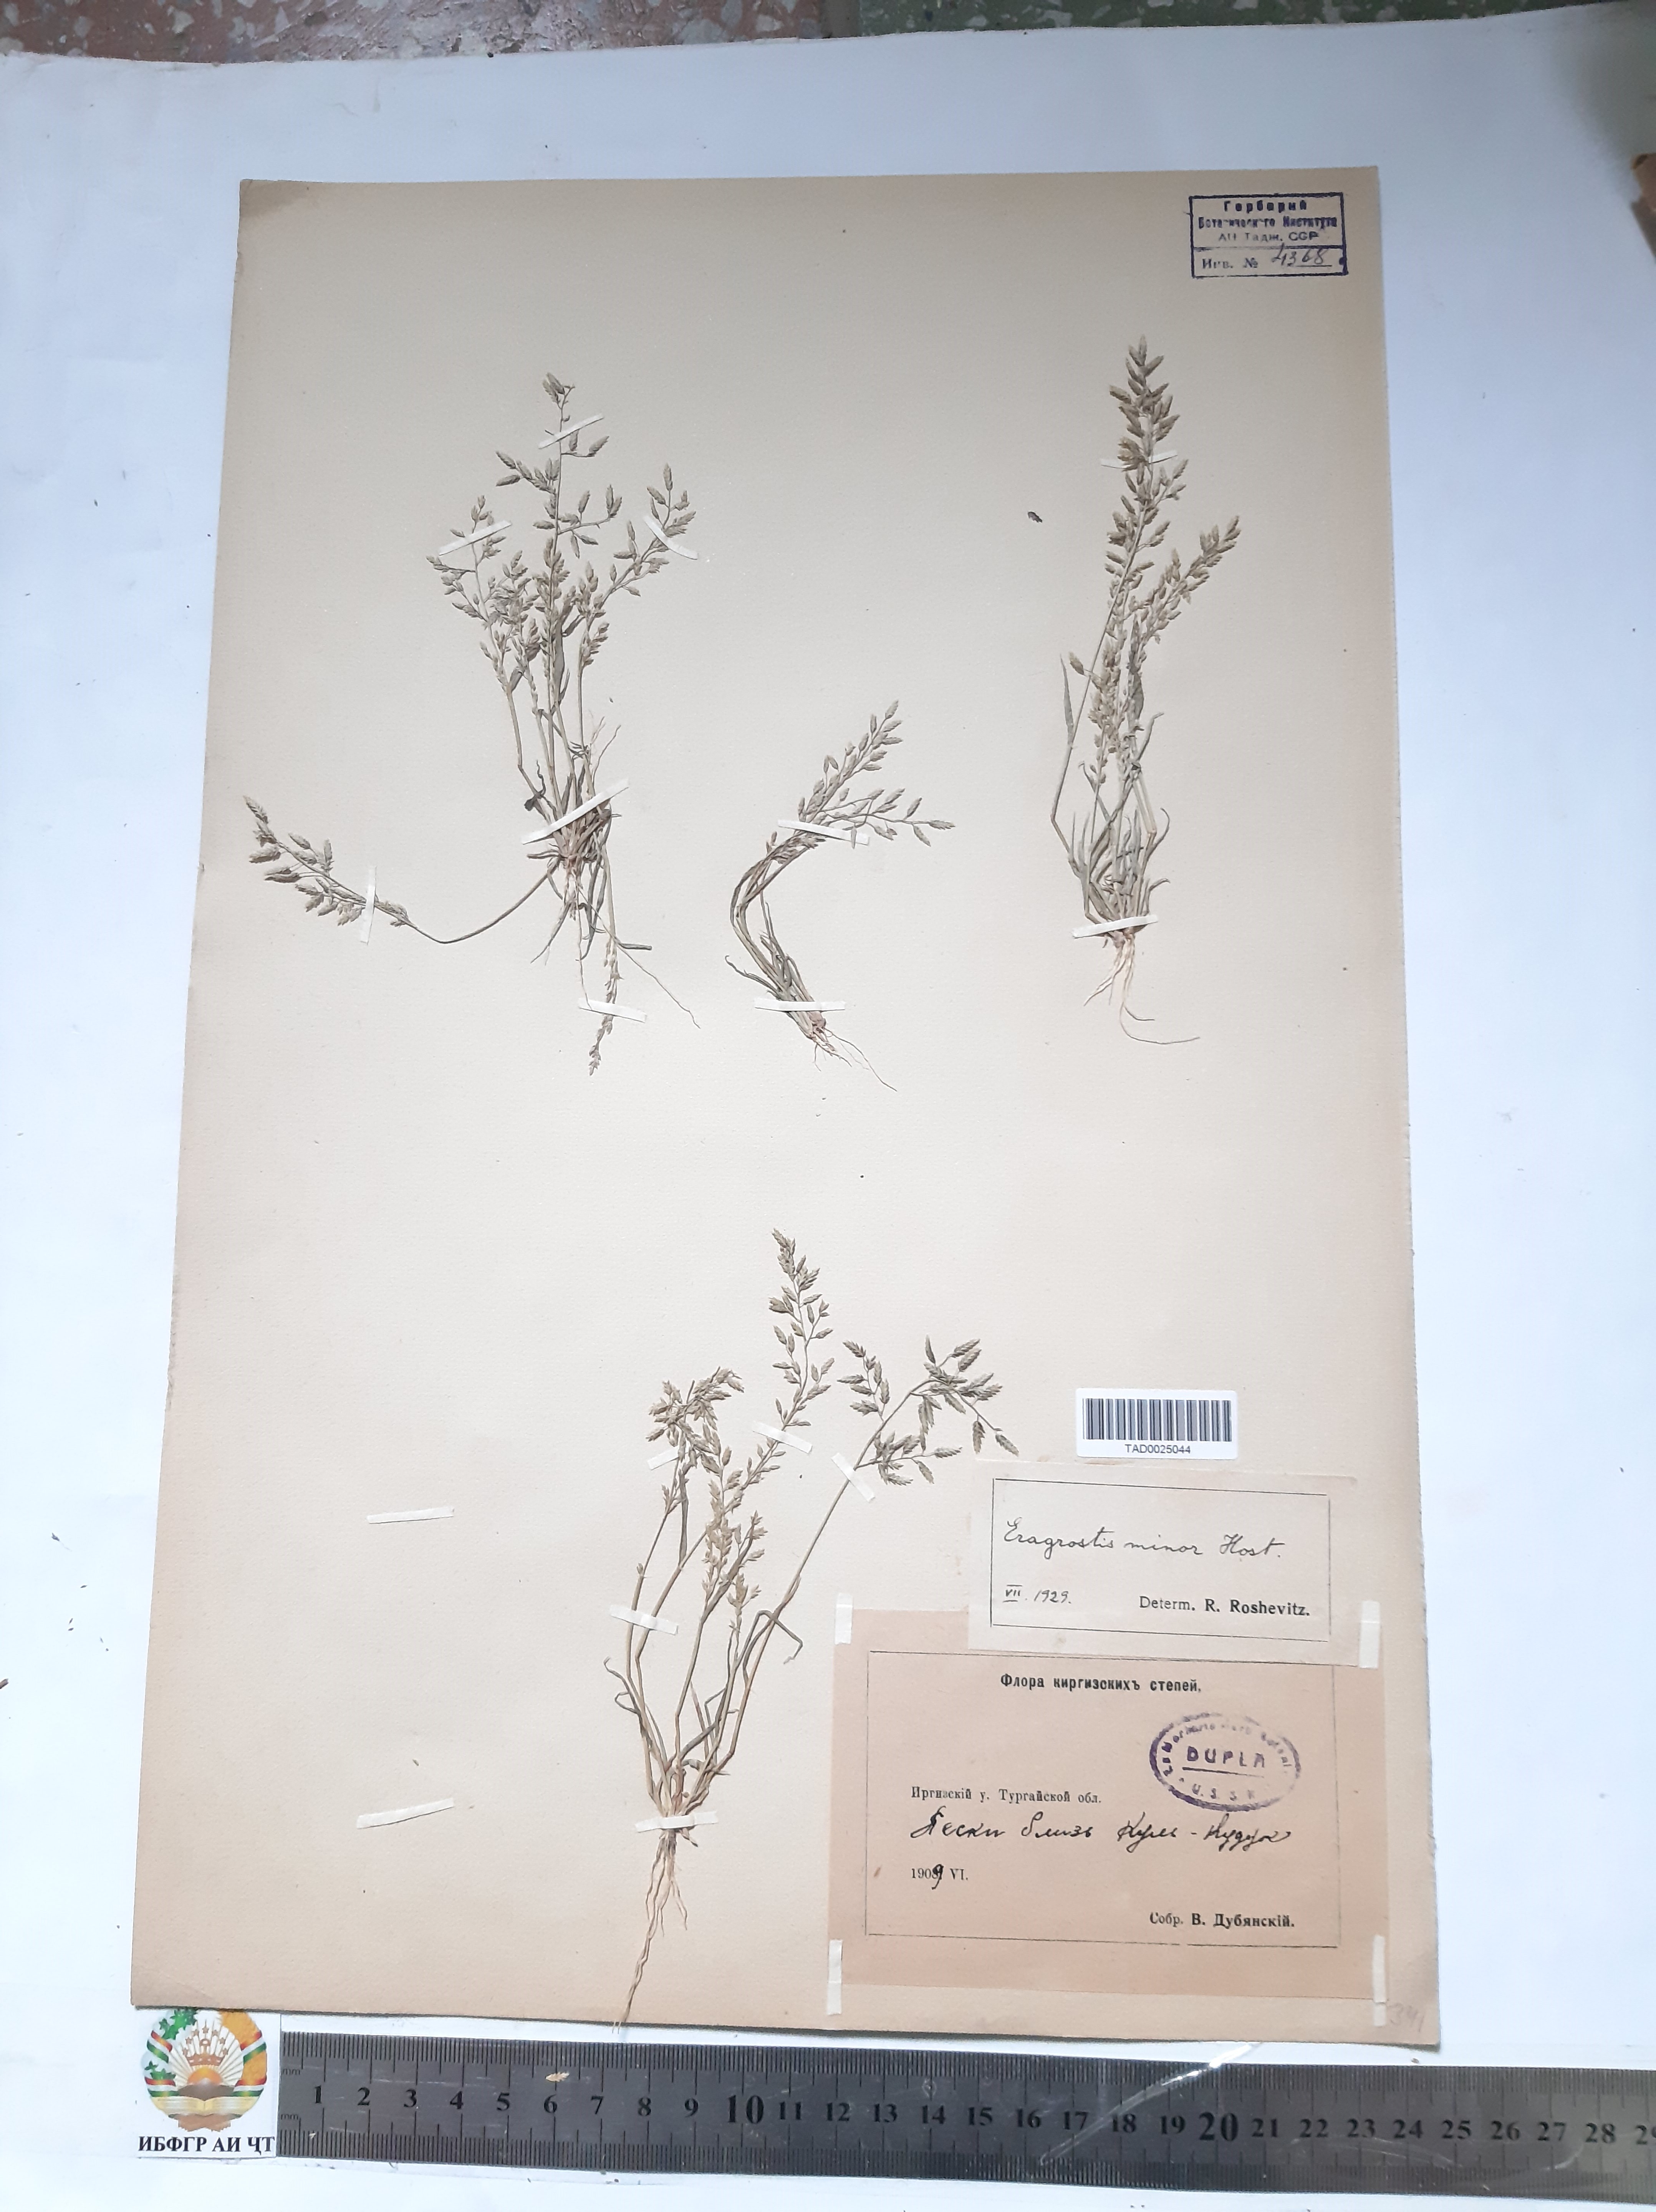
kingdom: Plantae
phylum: Tracheophyta
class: Liliopsida
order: Poales
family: Poaceae
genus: Eragrostis
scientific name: Eragrostis minor
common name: Small love-grass
